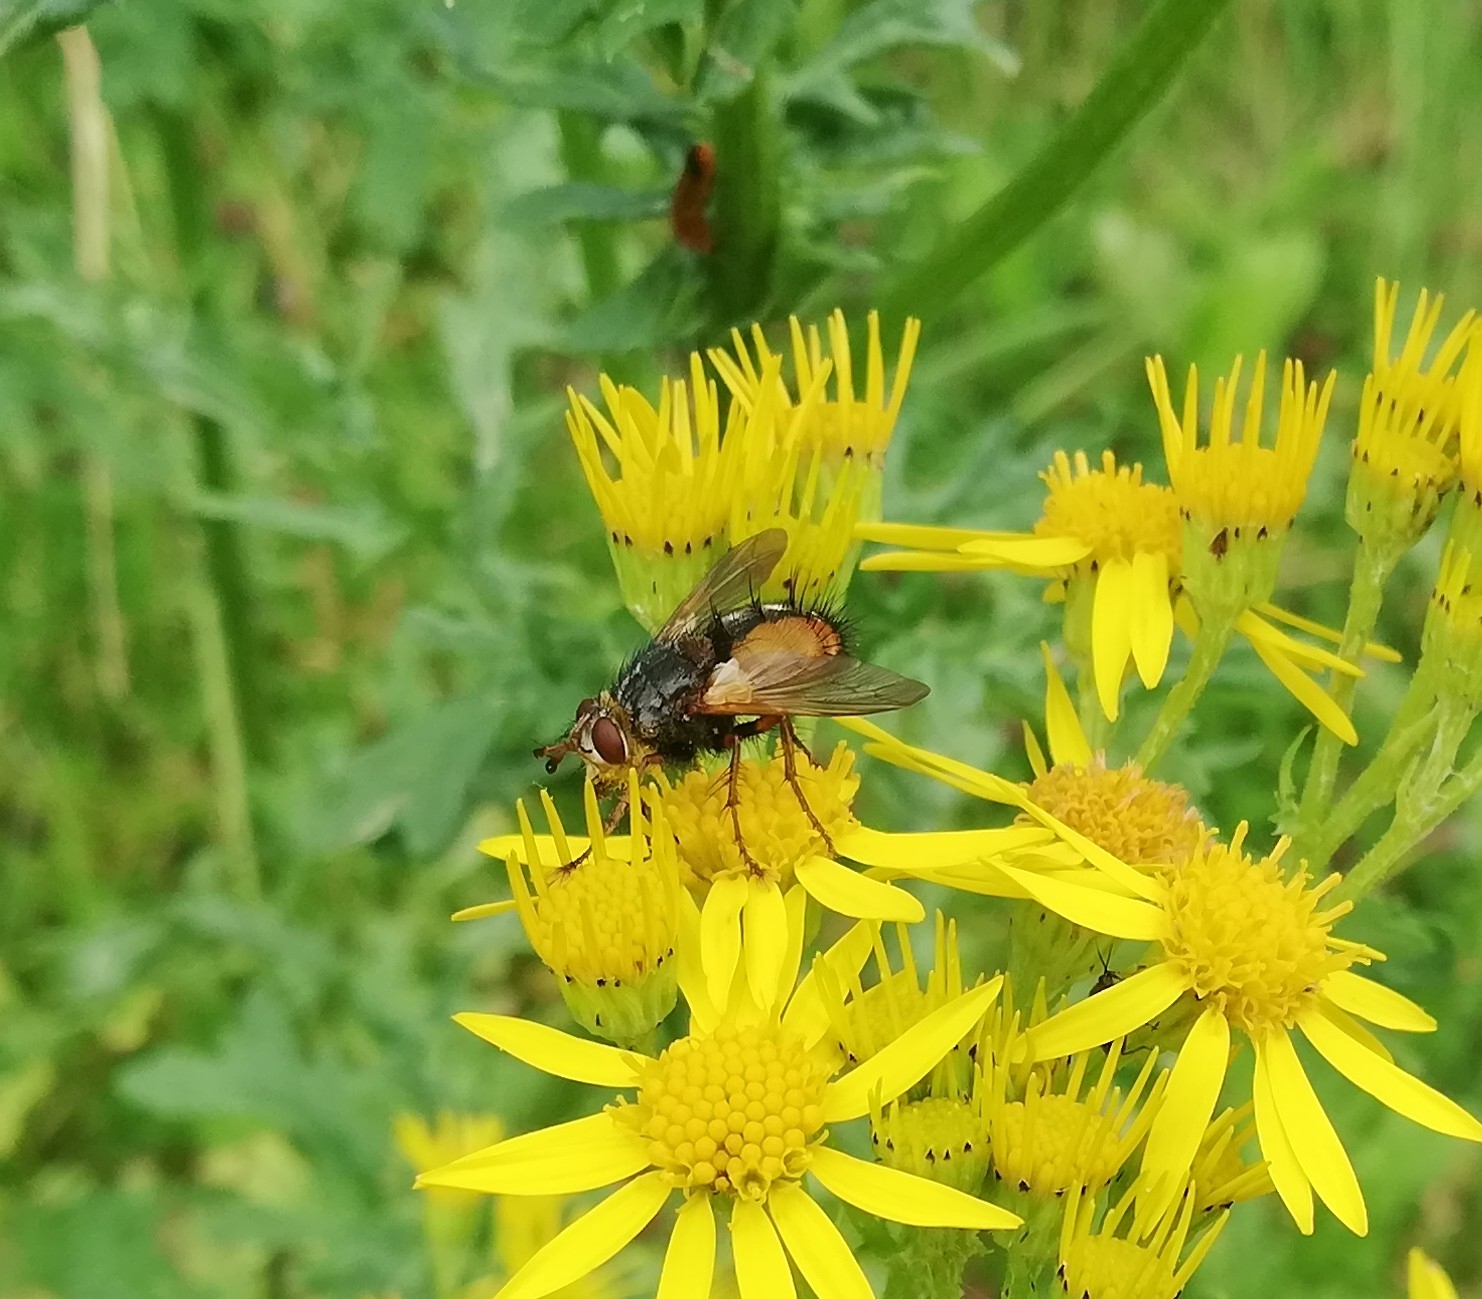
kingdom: Animalia
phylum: Arthropoda
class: Insecta
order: Diptera
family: Tachinidae
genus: Tachina
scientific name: Tachina fera
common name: Mellemfluen oskar
